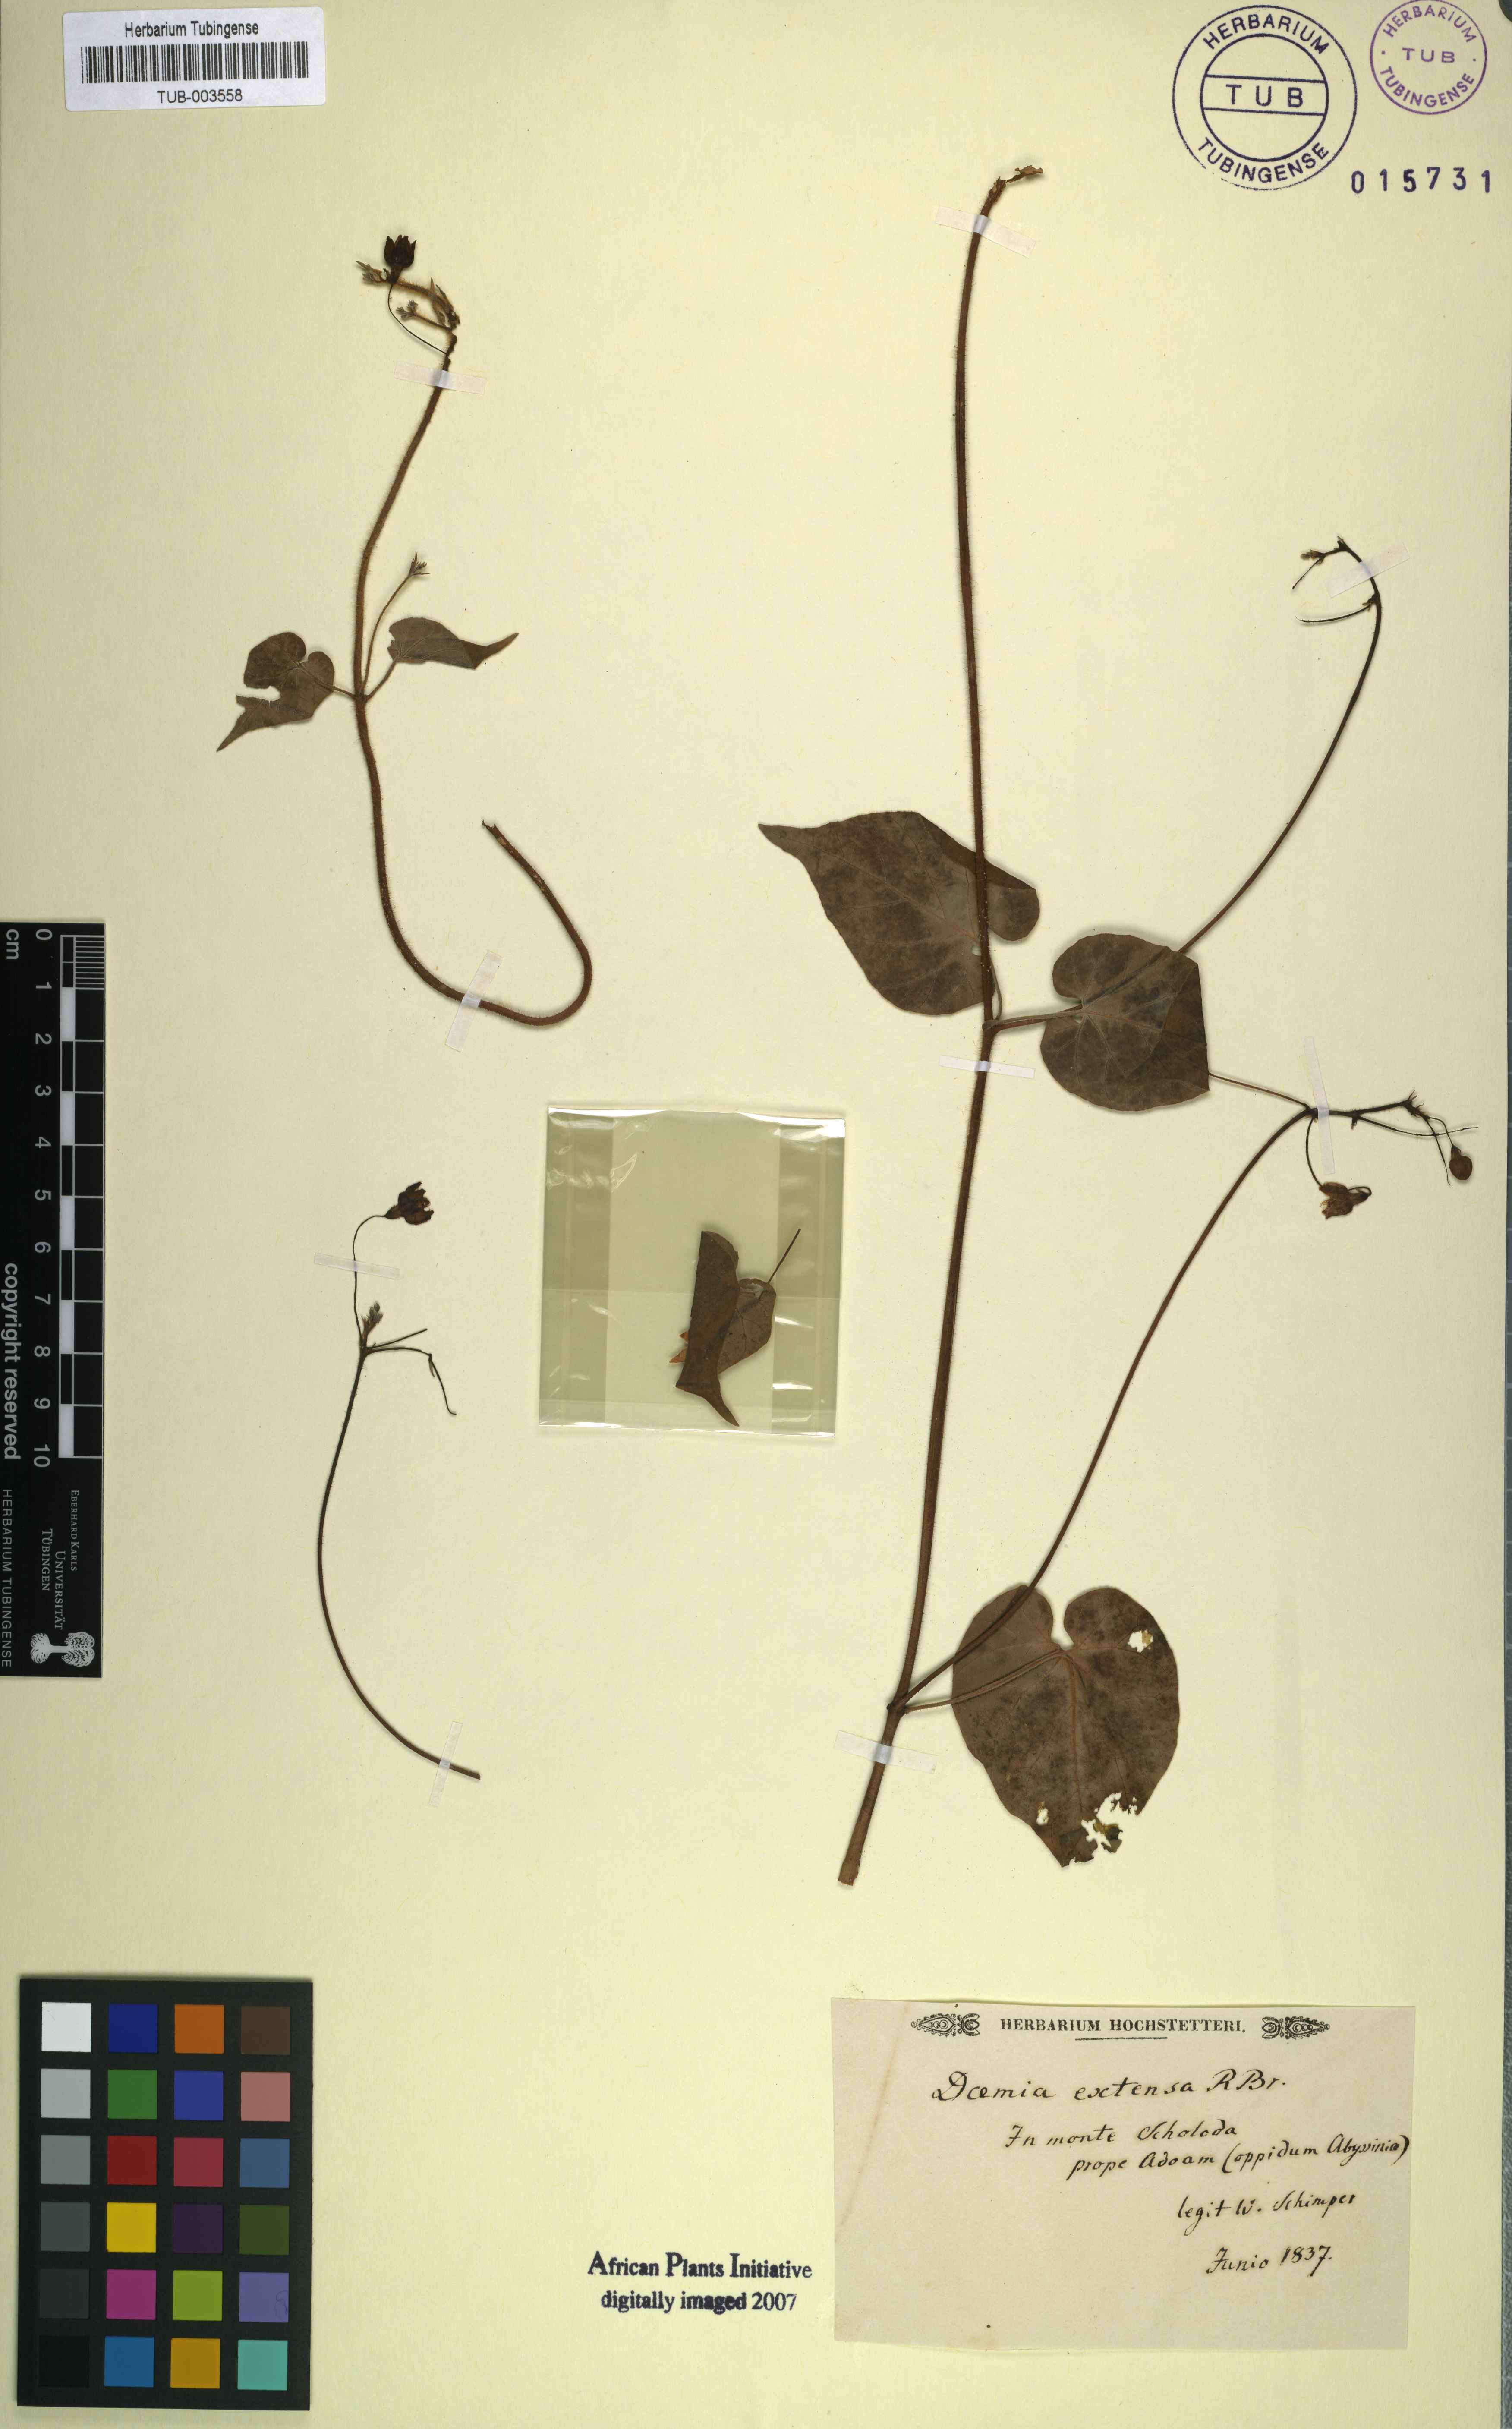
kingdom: Plantae
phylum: Tracheophyta
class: Magnoliopsida
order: Gentianales
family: Apocynaceae
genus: Pergularia
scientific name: Pergularia daemia
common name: Trellis-vine
